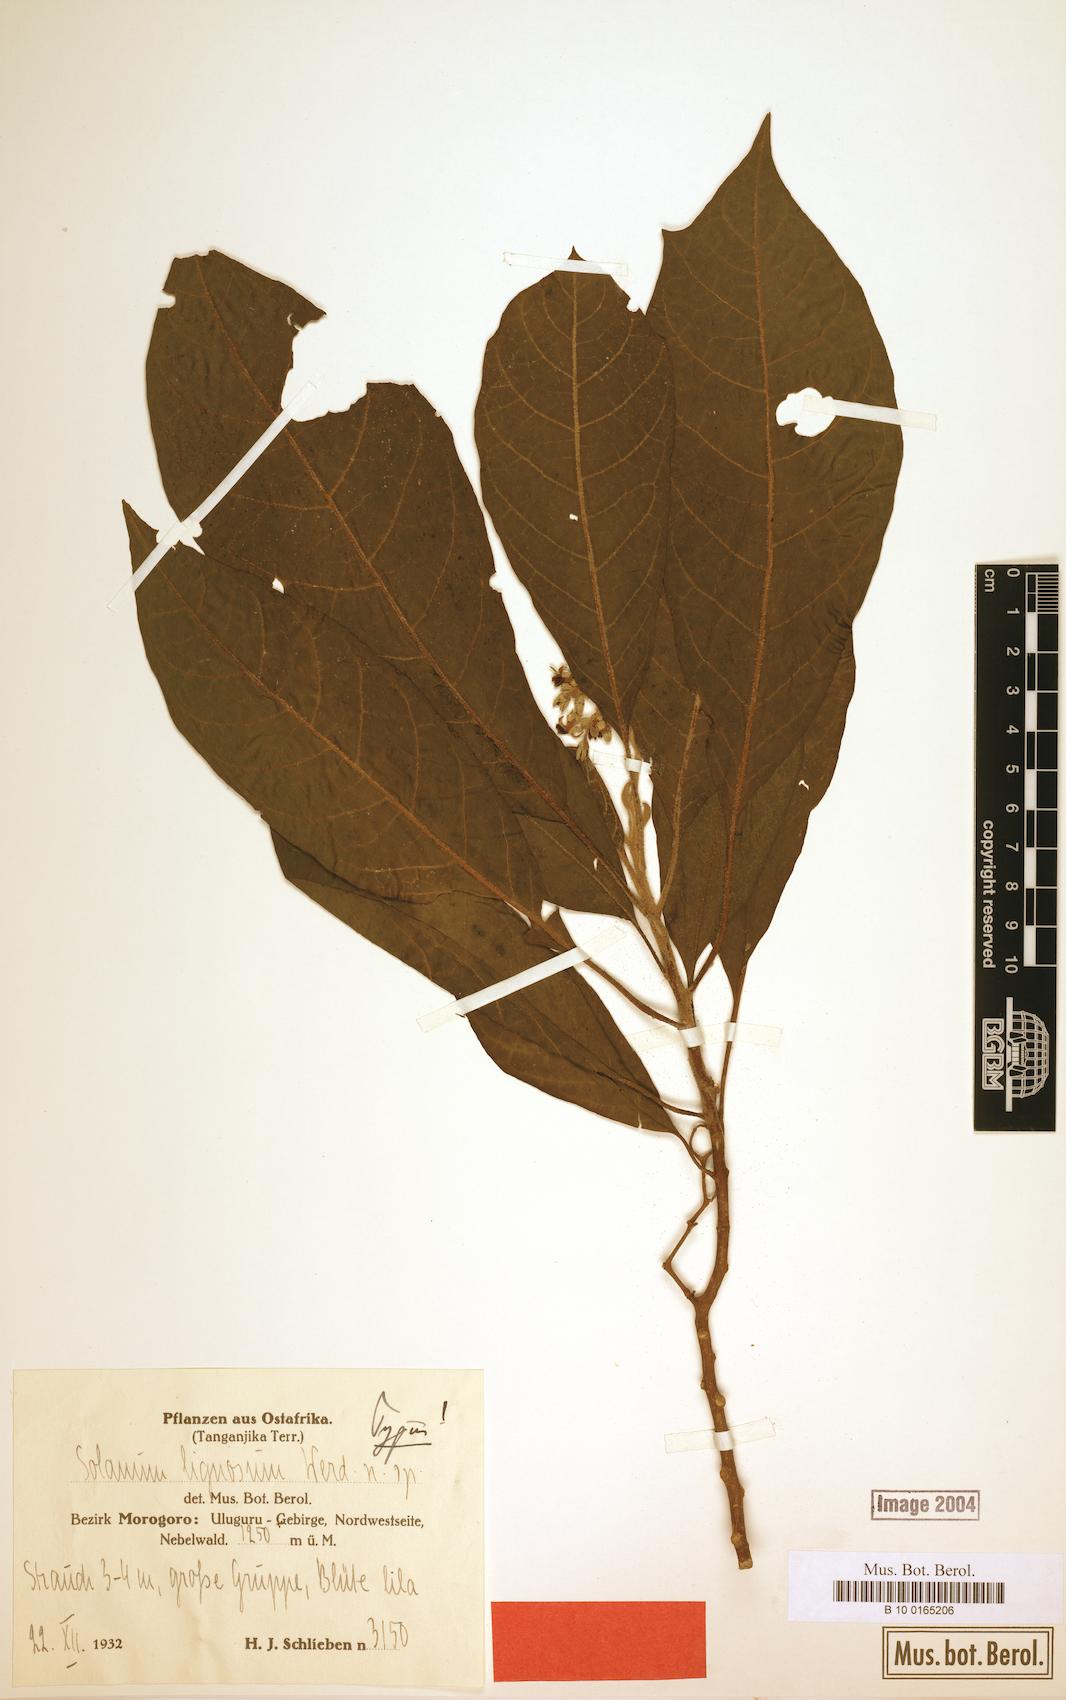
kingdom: Plantae
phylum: Tracheophyta
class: Magnoliopsida
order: Solanales
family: Solanaceae
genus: Solanum
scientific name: Solanum schumannianum
